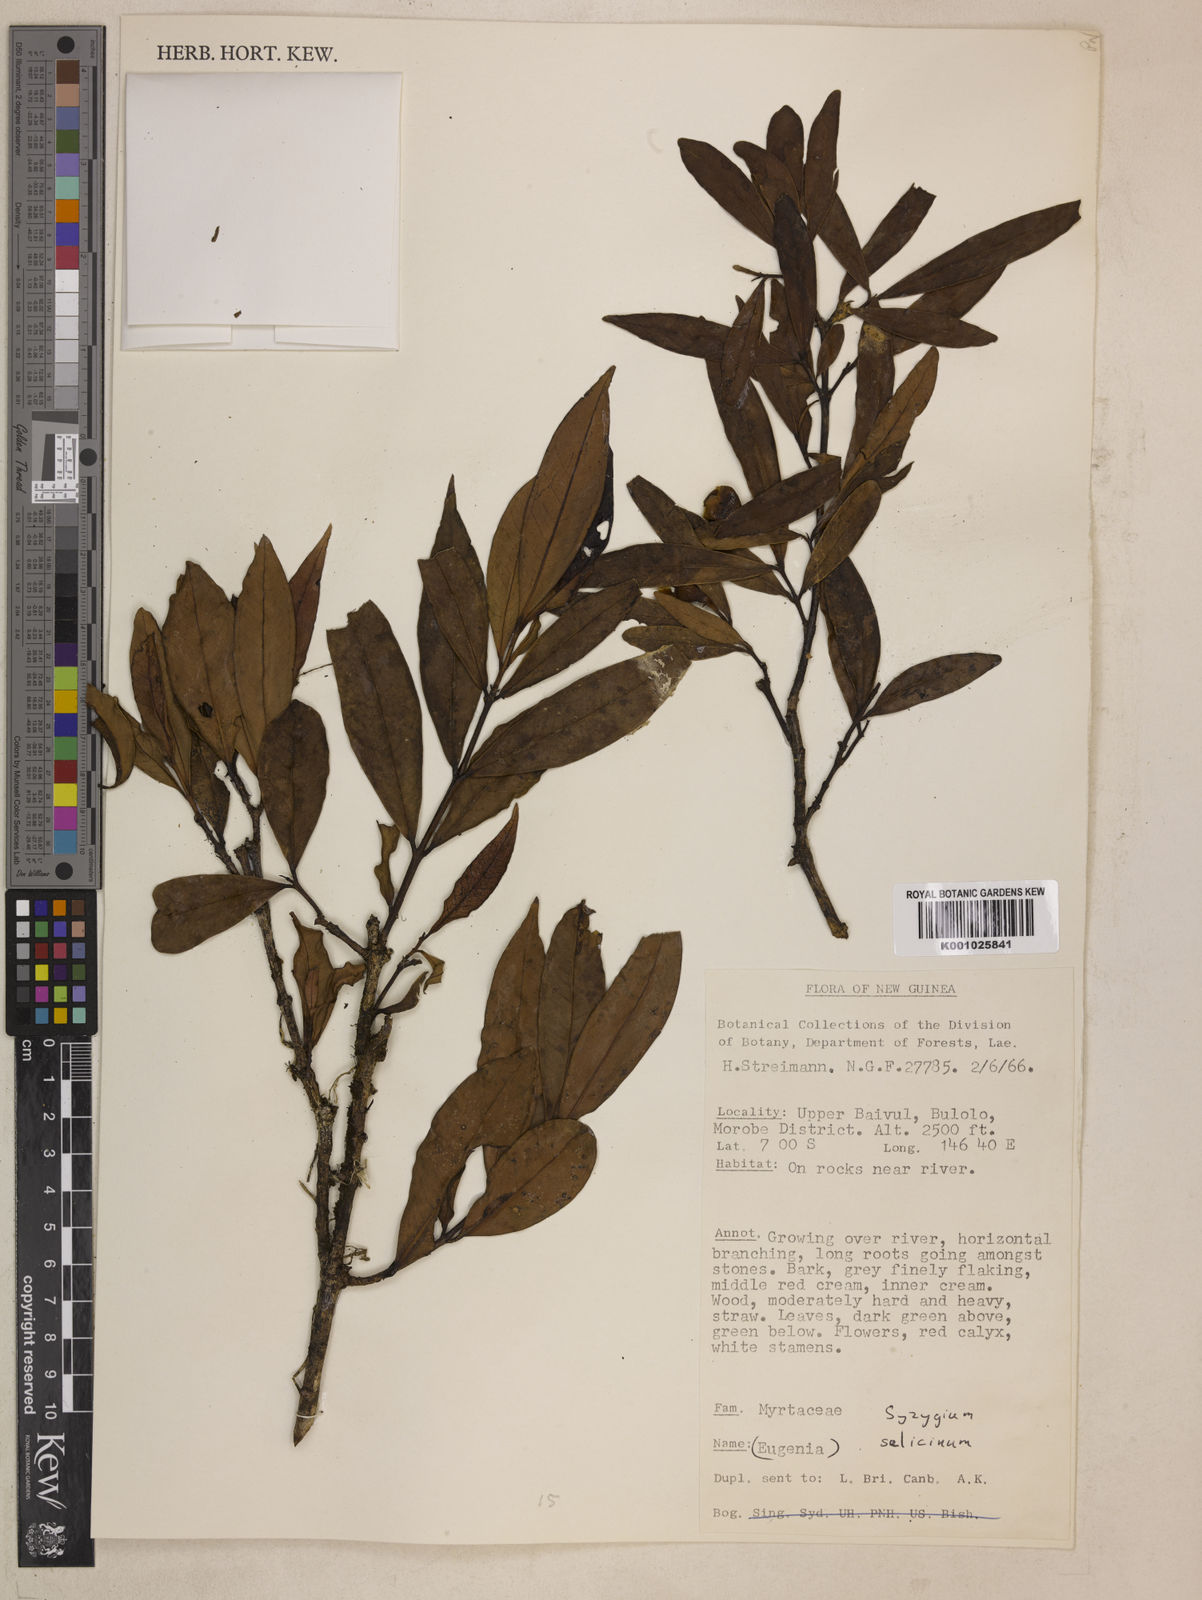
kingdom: Plantae
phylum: Tracheophyta
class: Magnoliopsida
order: Myrtales
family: Myrtaceae
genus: Syzygium
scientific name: Syzygium salicinum
